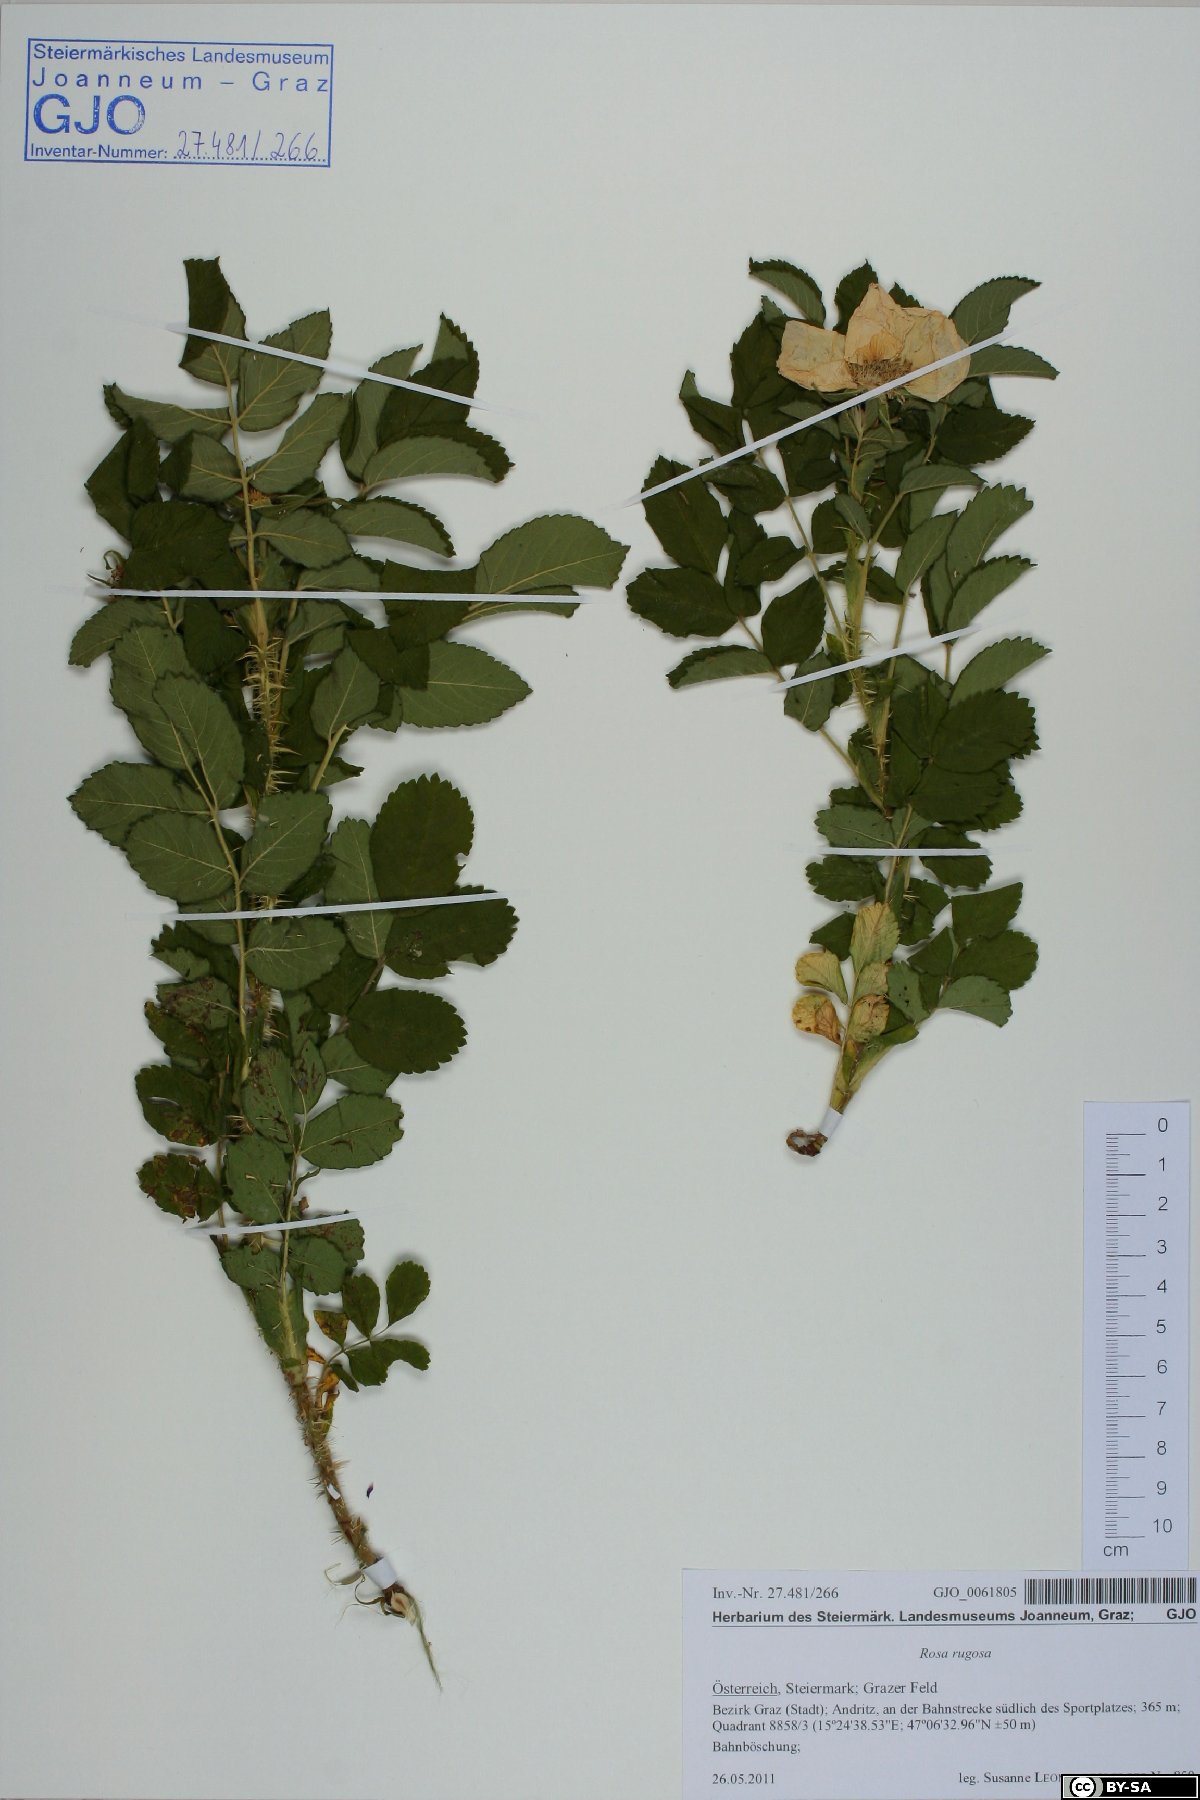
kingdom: Plantae
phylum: Tracheophyta
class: Magnoliopsida
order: Rosales
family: Rosaceae
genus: Rosa
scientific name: Rosa rugosa
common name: Japanese rose
